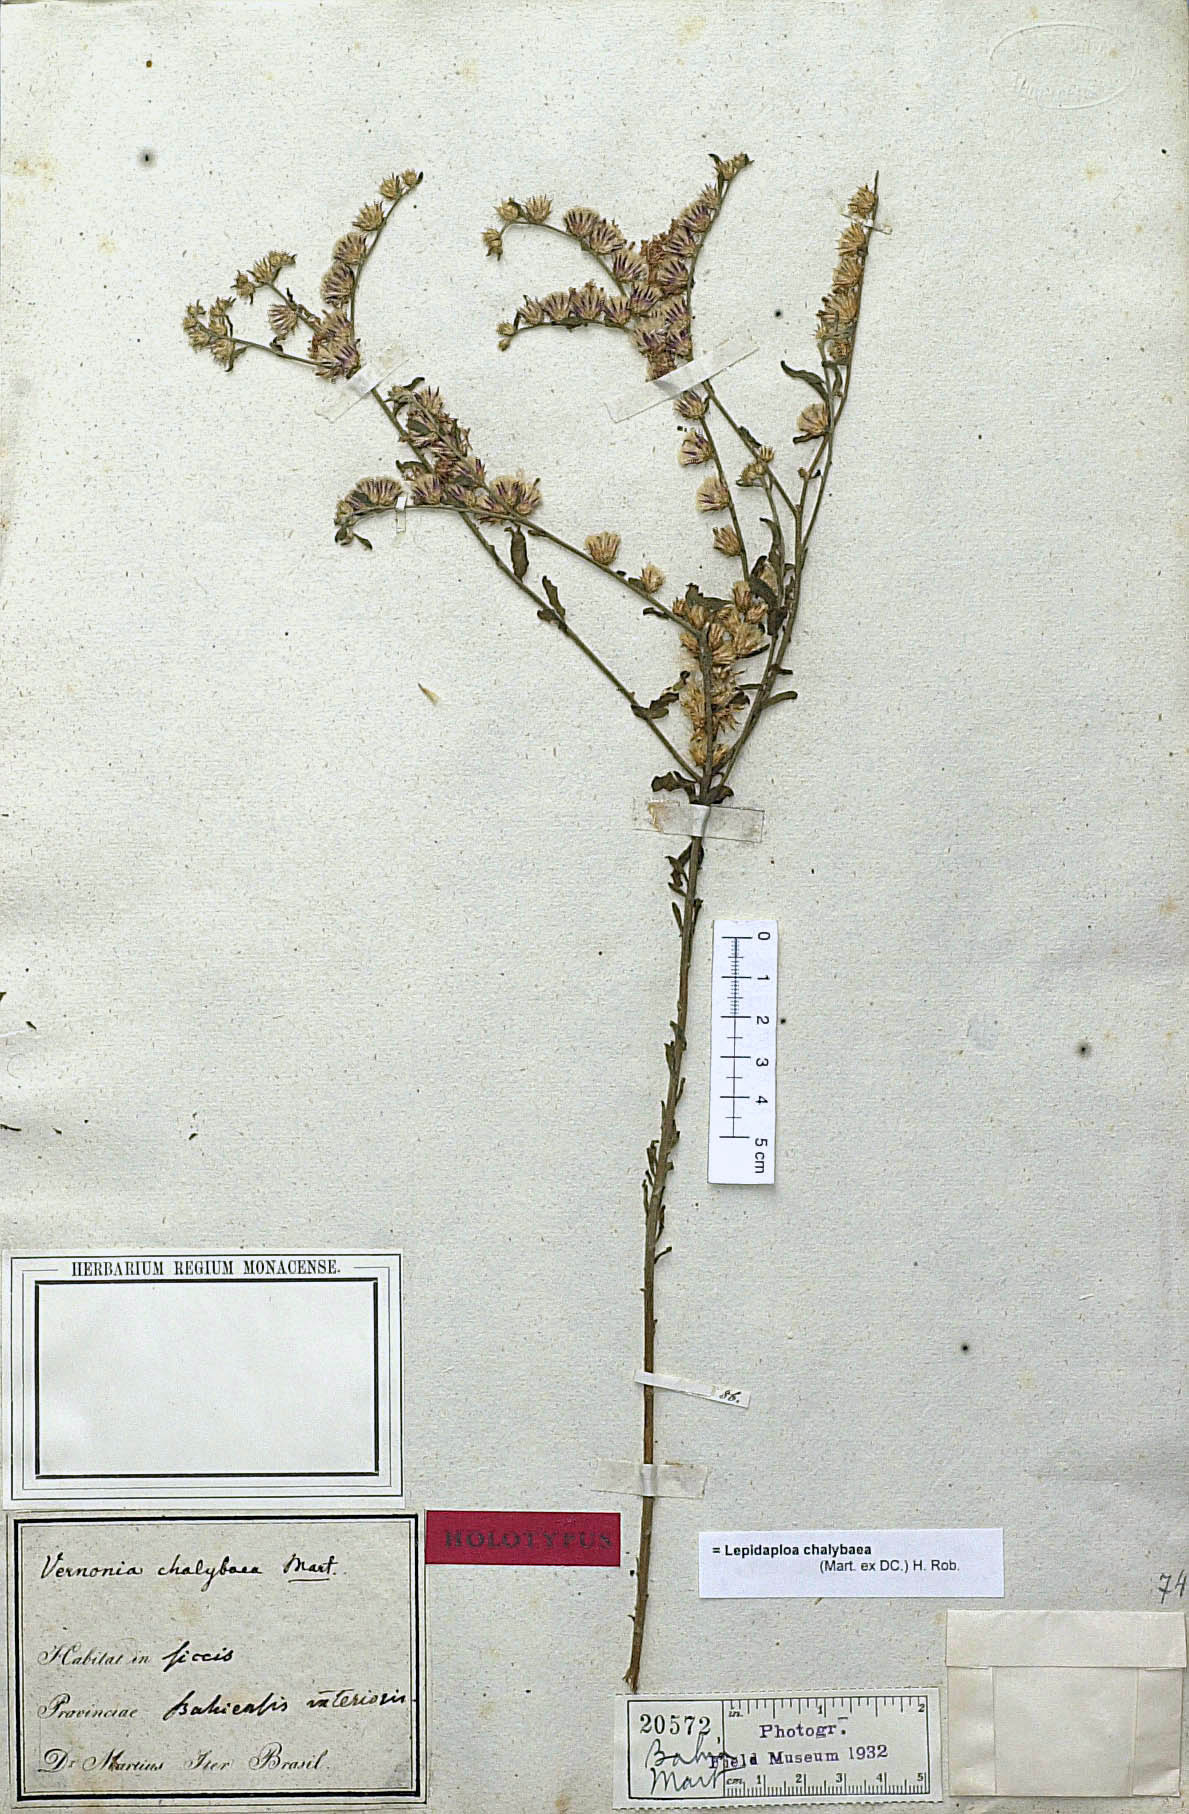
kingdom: Plantae
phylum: Tracheophyta
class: Magnoliopsida
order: Asterales
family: Asteraceae
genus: Lepidaploa
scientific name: Lepidaploa chalybaea
